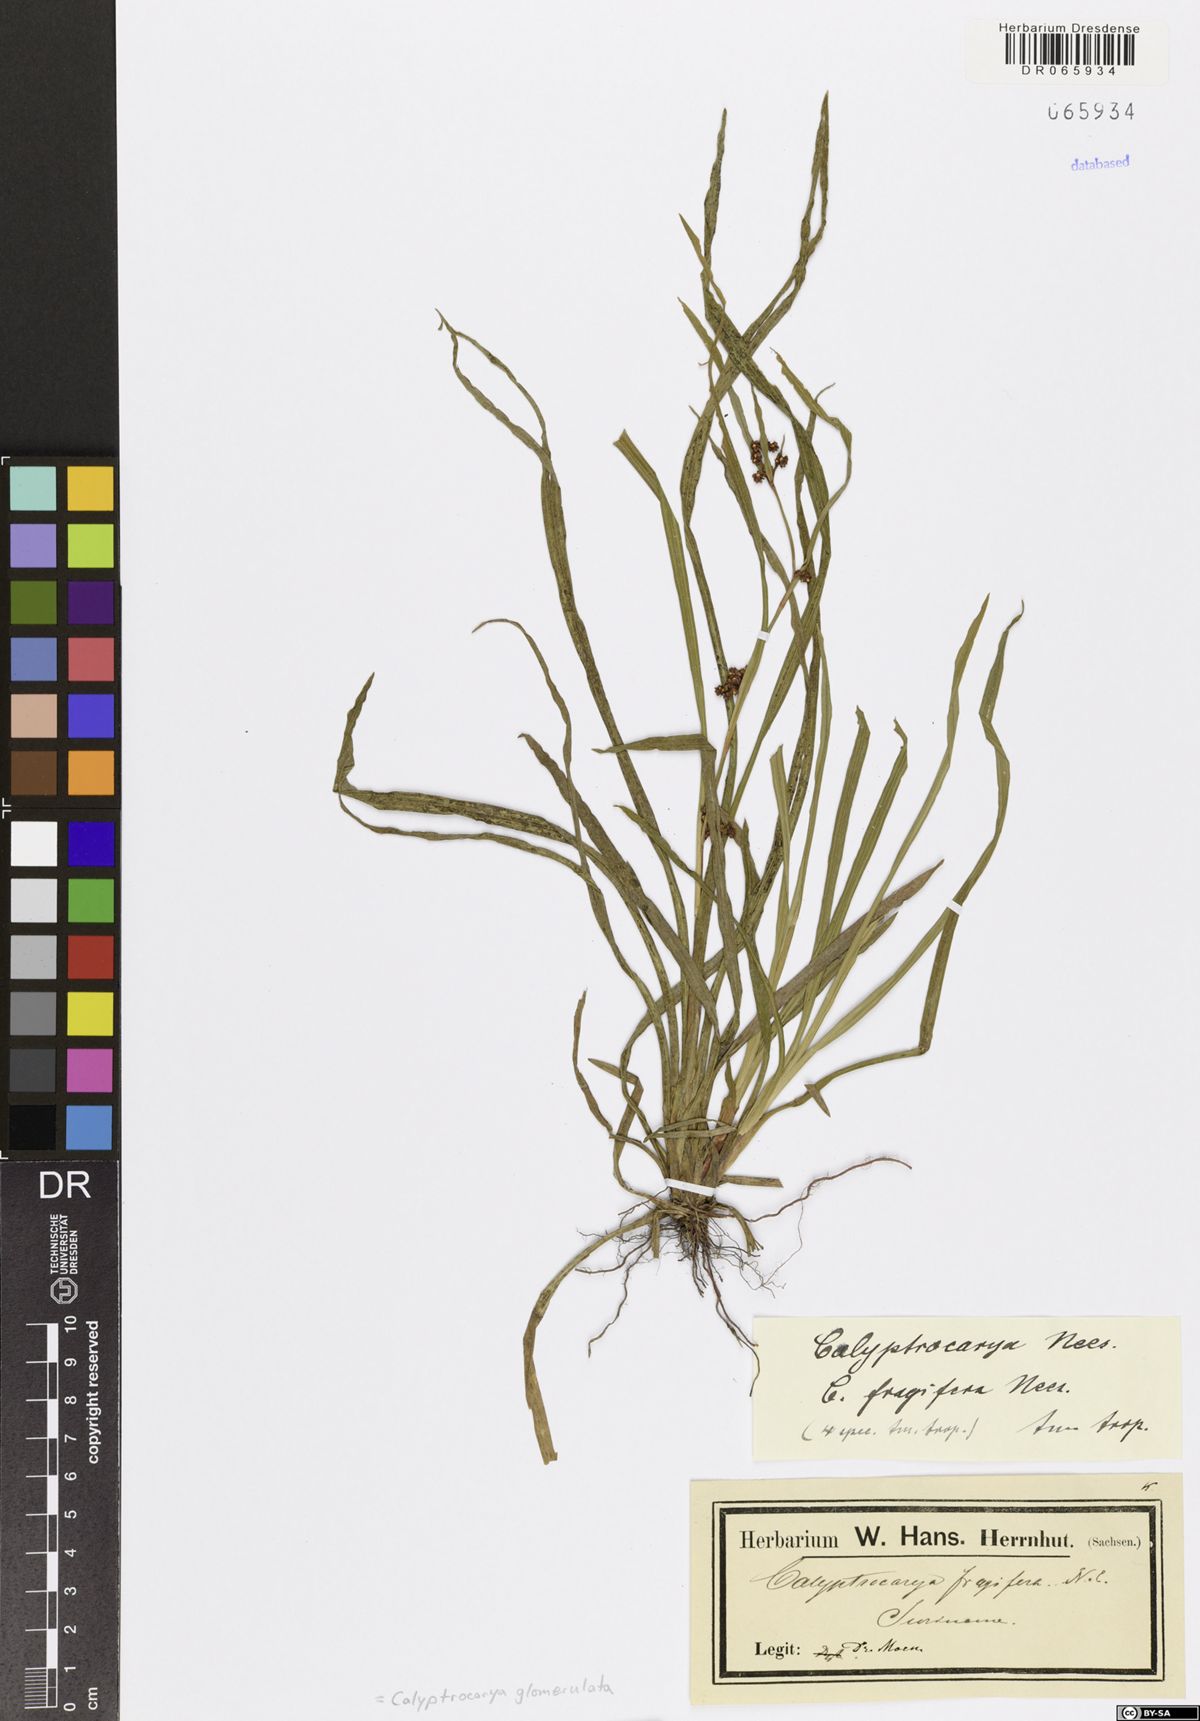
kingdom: Plantae
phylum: Tracheophyta
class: Liliopsida
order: Poales
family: Cyperaceae
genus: Calyptrocarya
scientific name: Calyptrocarya glomerulata
